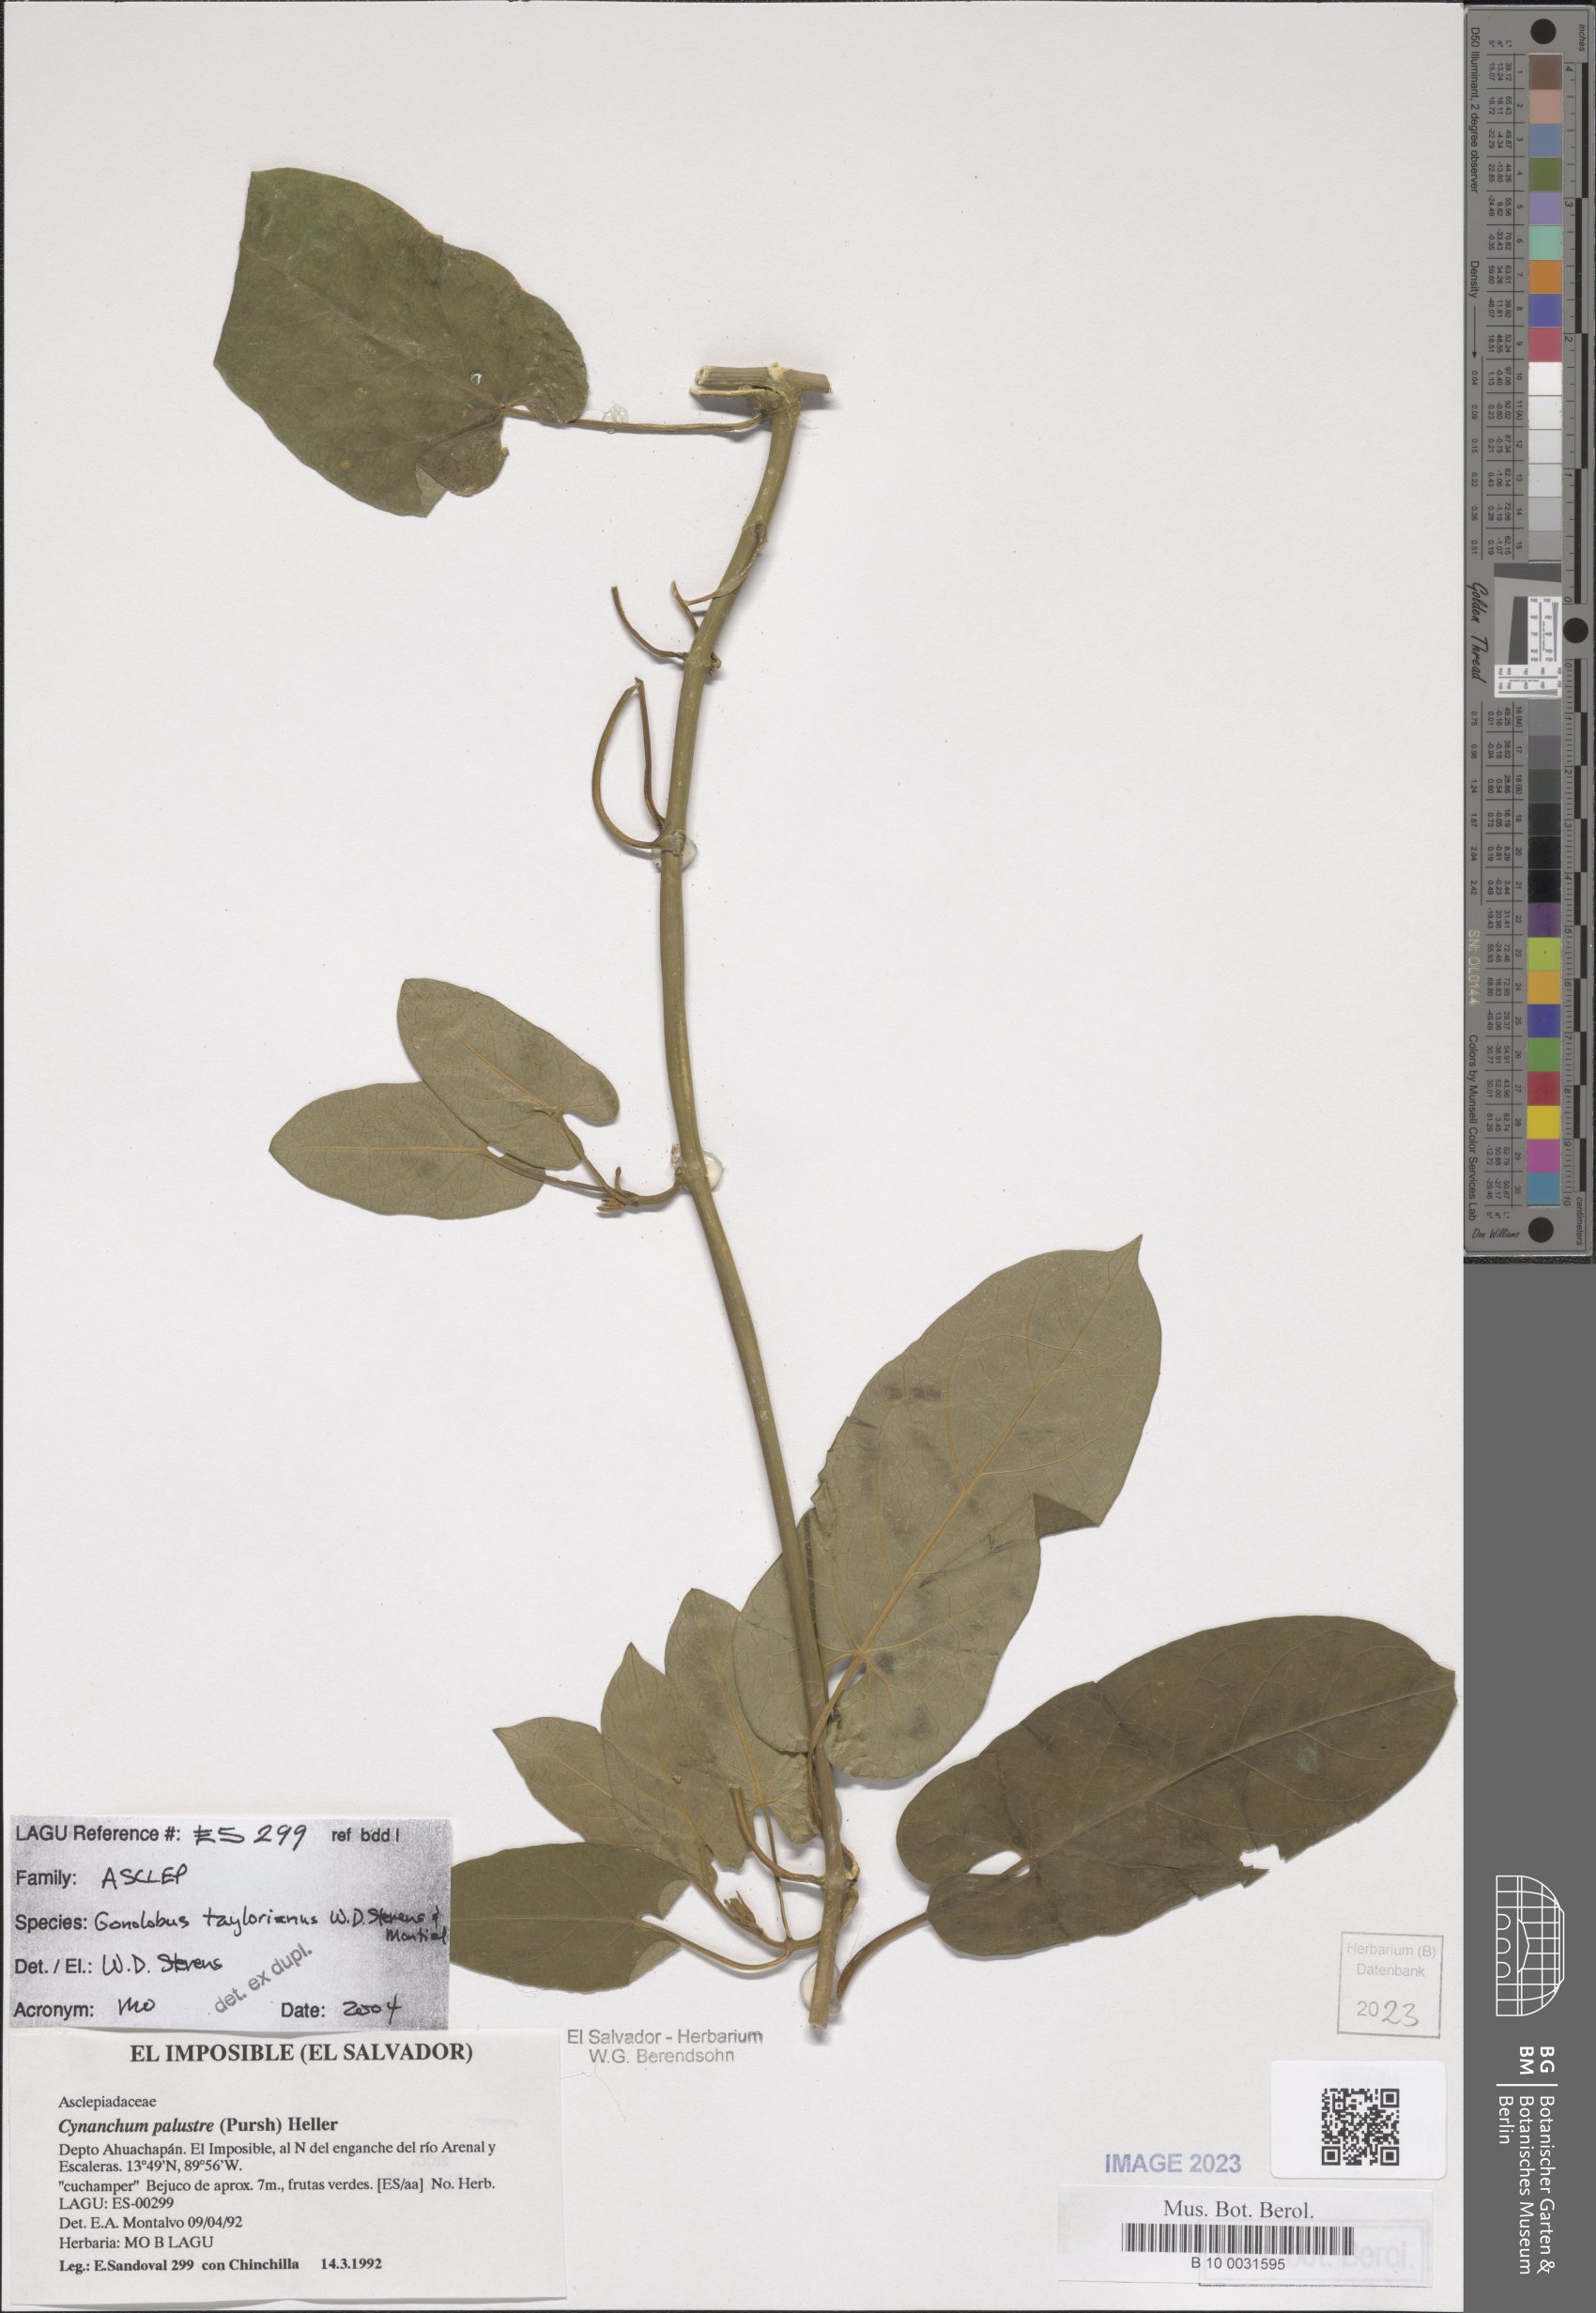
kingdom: Plantae
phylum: Tracheophyta
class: Magnoliopsida
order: Gentianales
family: Apocynaceae
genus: Gonolobus
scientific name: Gonolobus taylorianus
